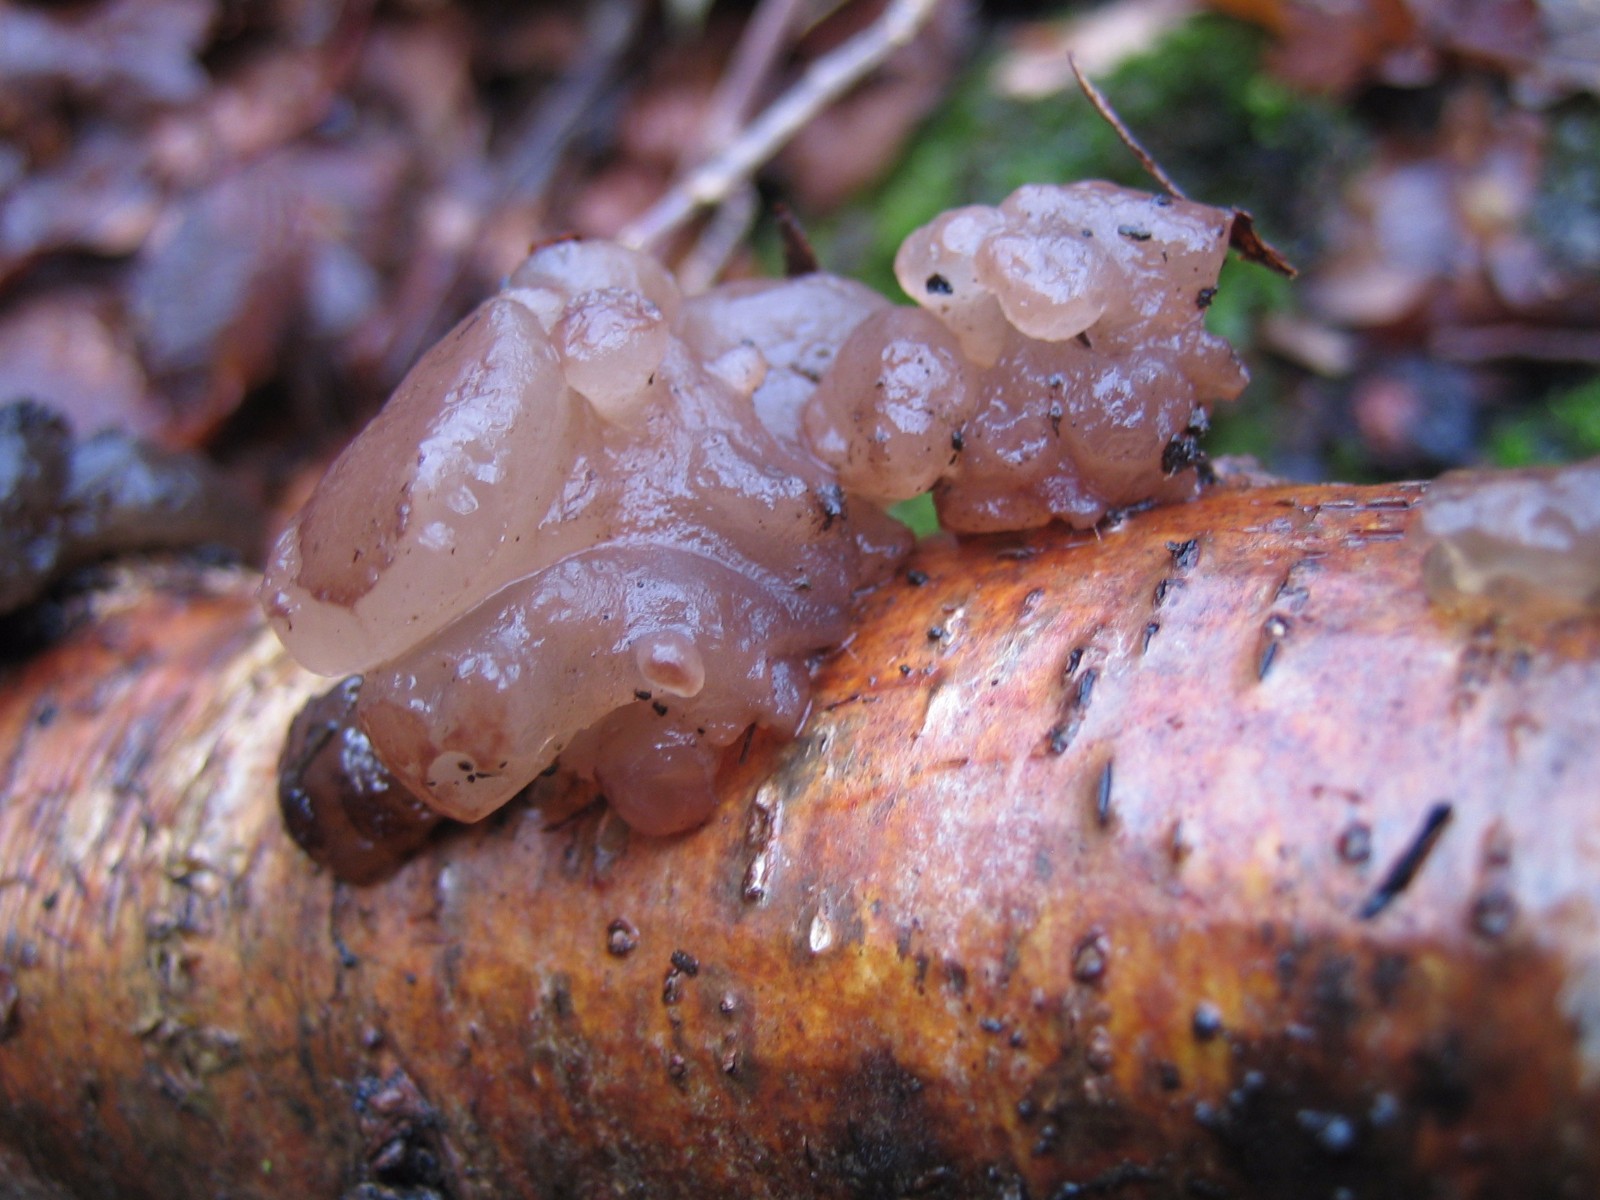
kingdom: Fungi
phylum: Ascomycota
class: Leotiomycetes
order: Helotiales
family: Gelatinodiscaceae
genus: Neobulgaria
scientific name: Neobulgaria pura
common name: bleg bævreskive
